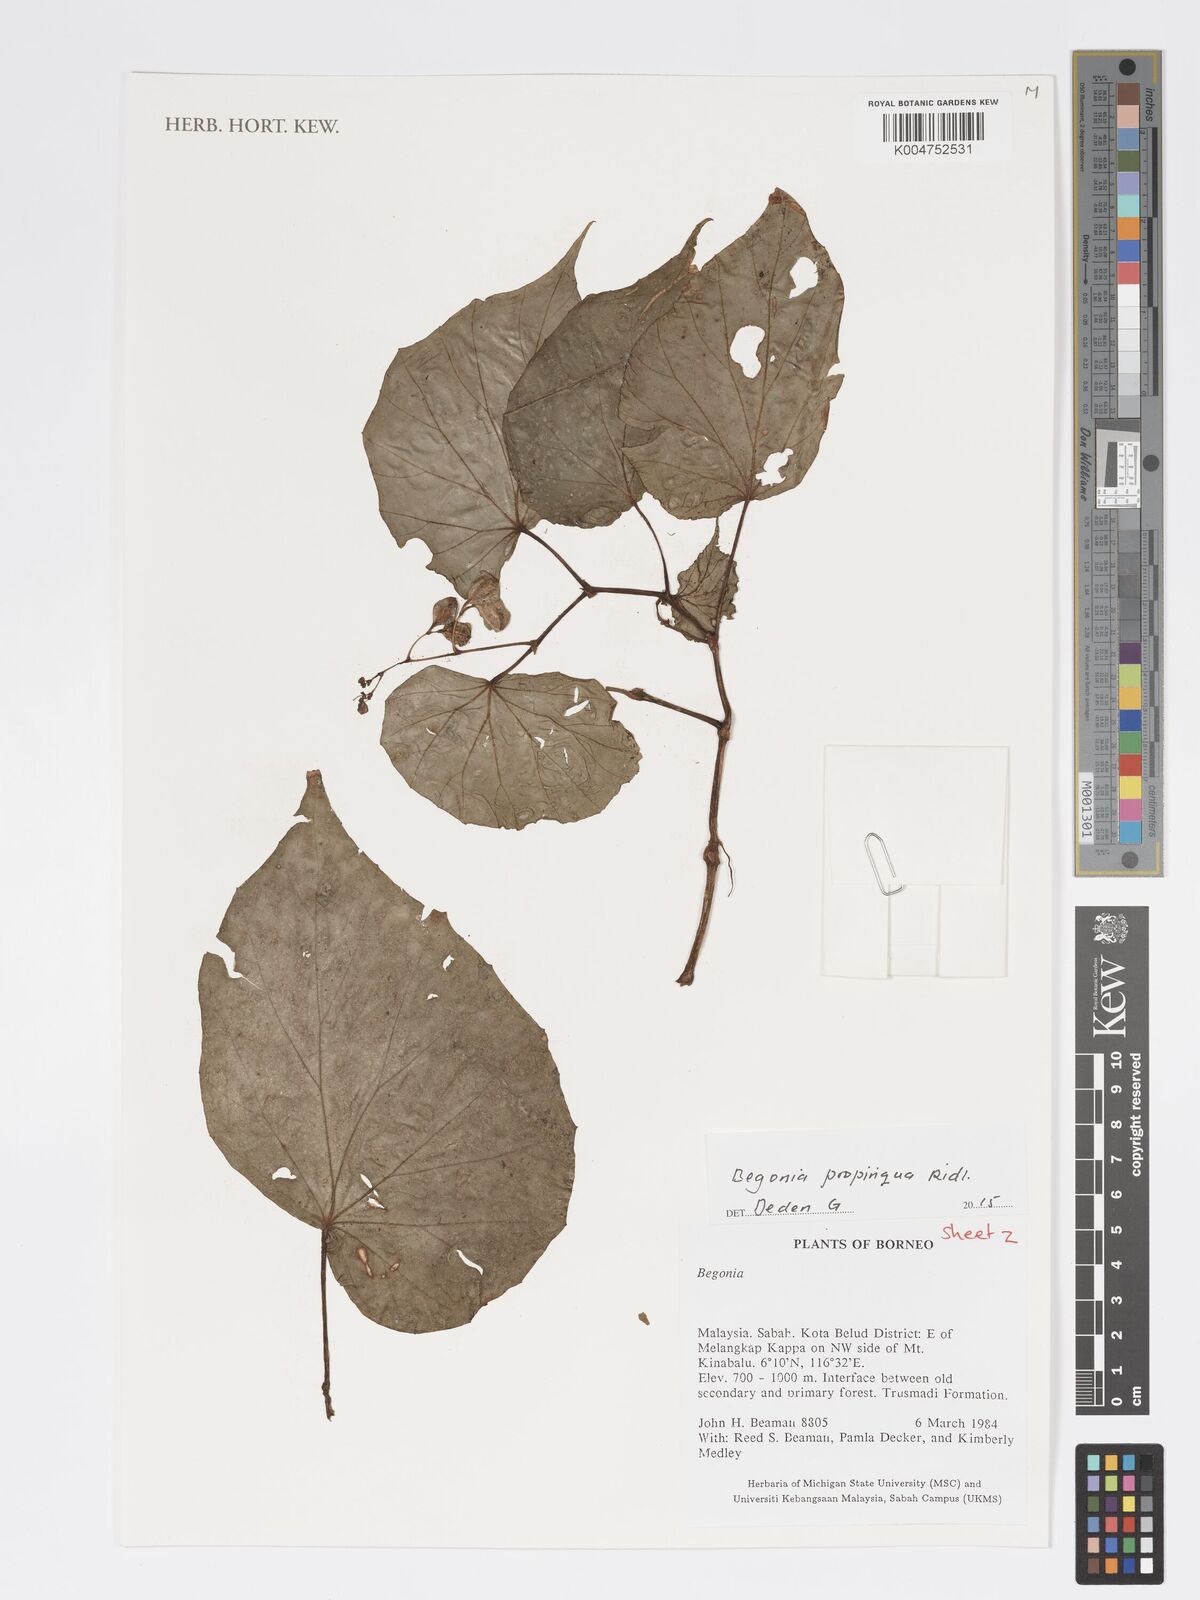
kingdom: Plantae
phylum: Tracheophyta
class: Magnoliopsida
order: Cucurbitales
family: Begoniaceae
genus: Begonia
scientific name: Begonia propinqua
